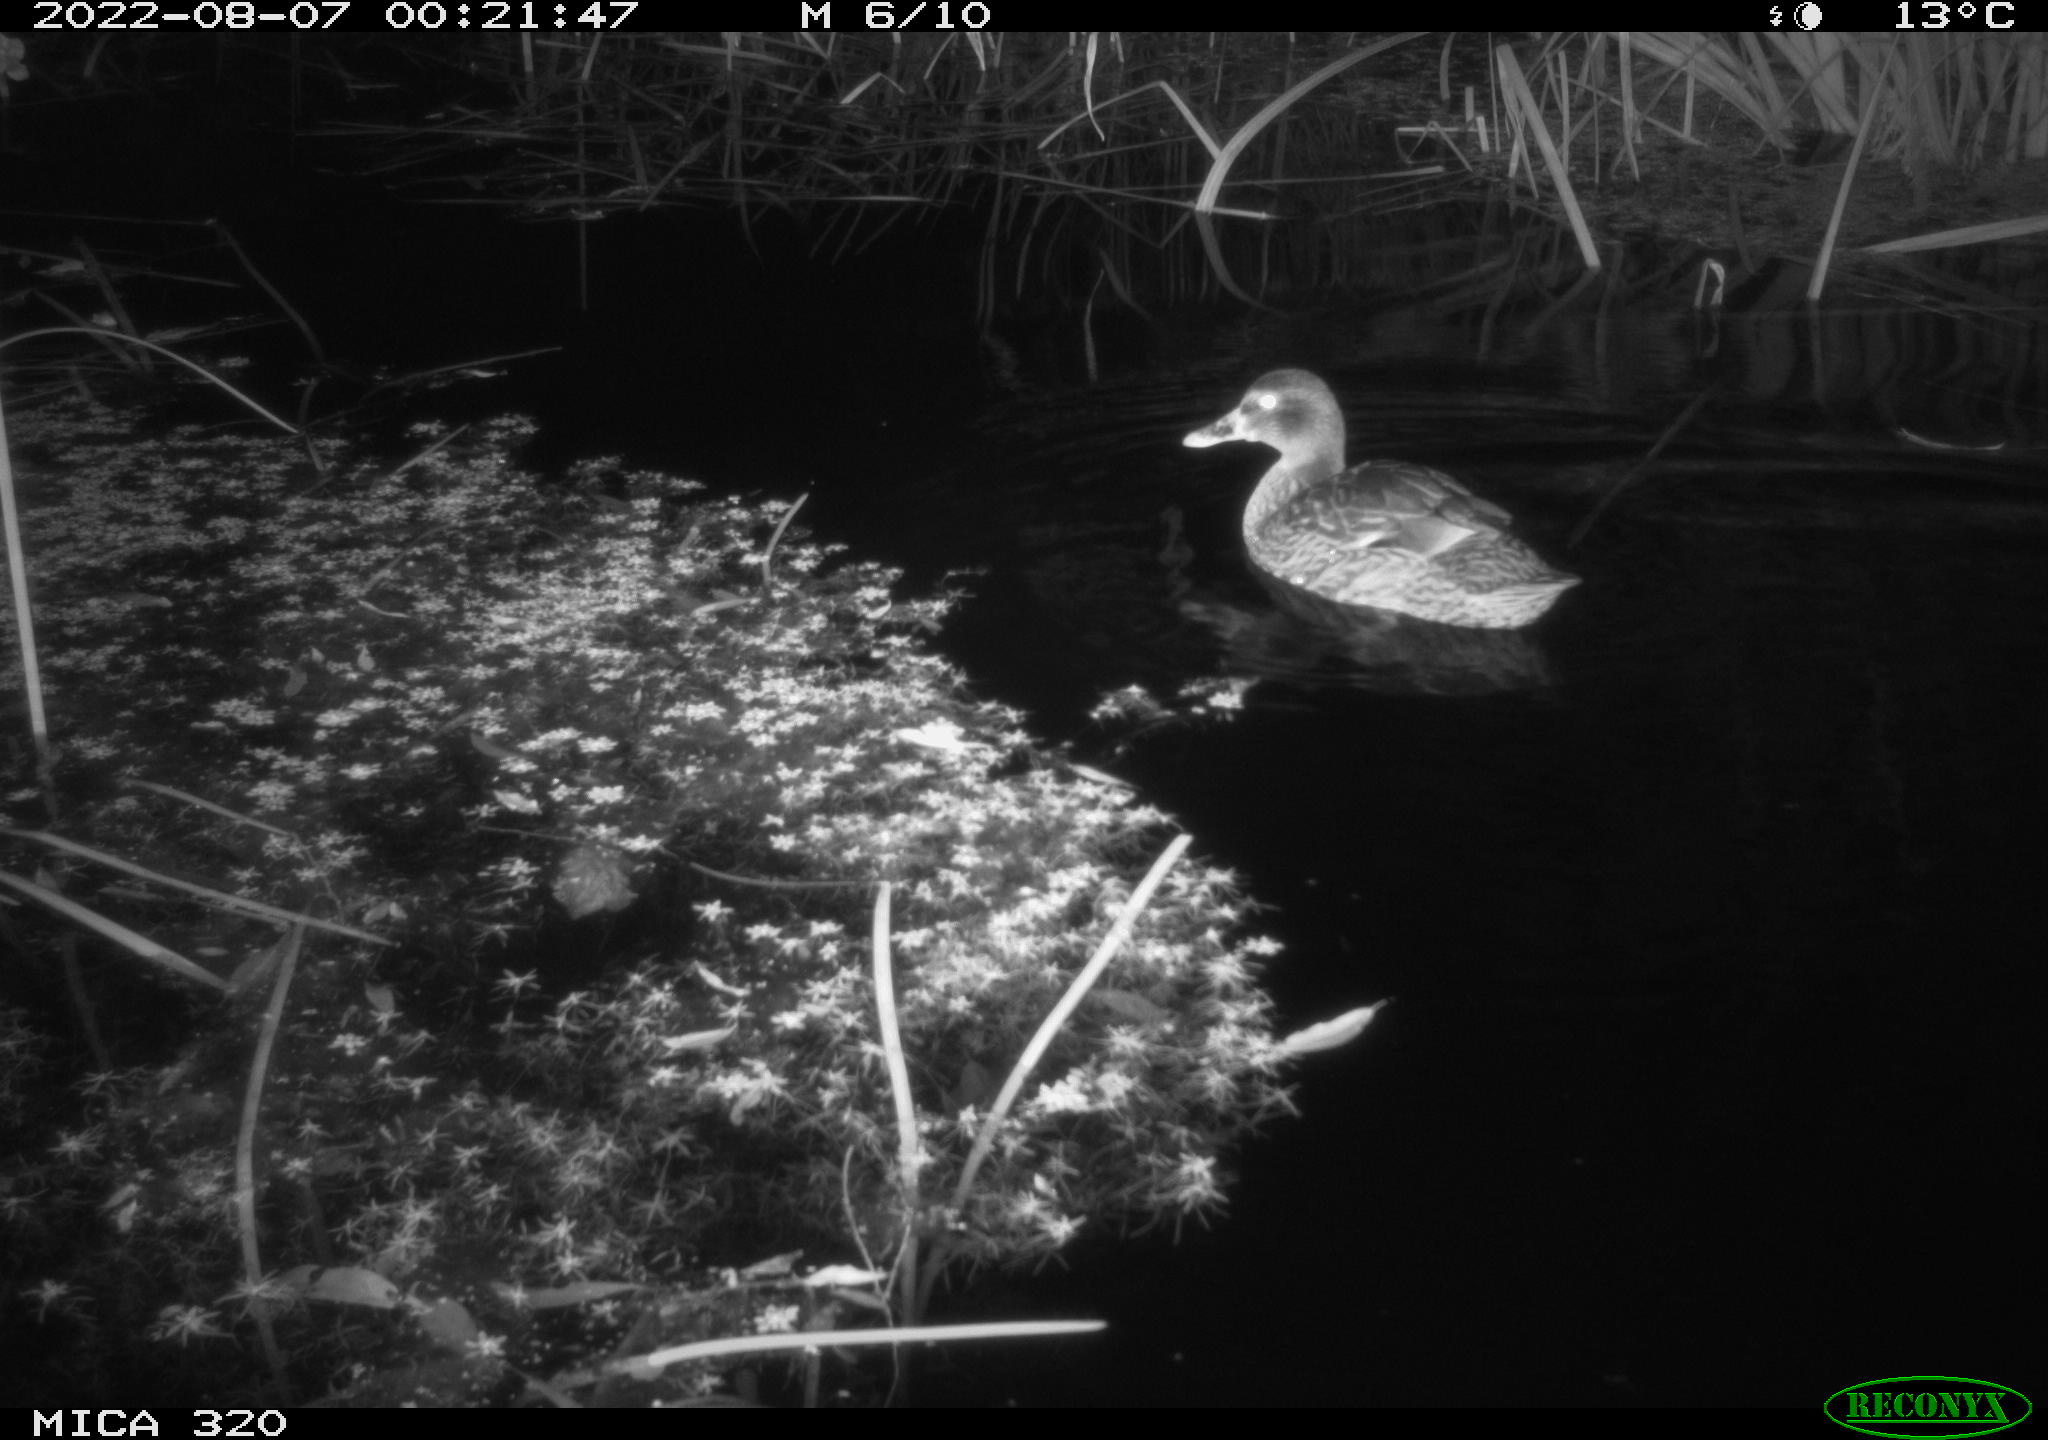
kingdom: Animalia
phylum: Chordata
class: Aves
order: Anseriformes
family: Anatidae
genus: Anas
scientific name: Anas platyrhynchos
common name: Mallard
